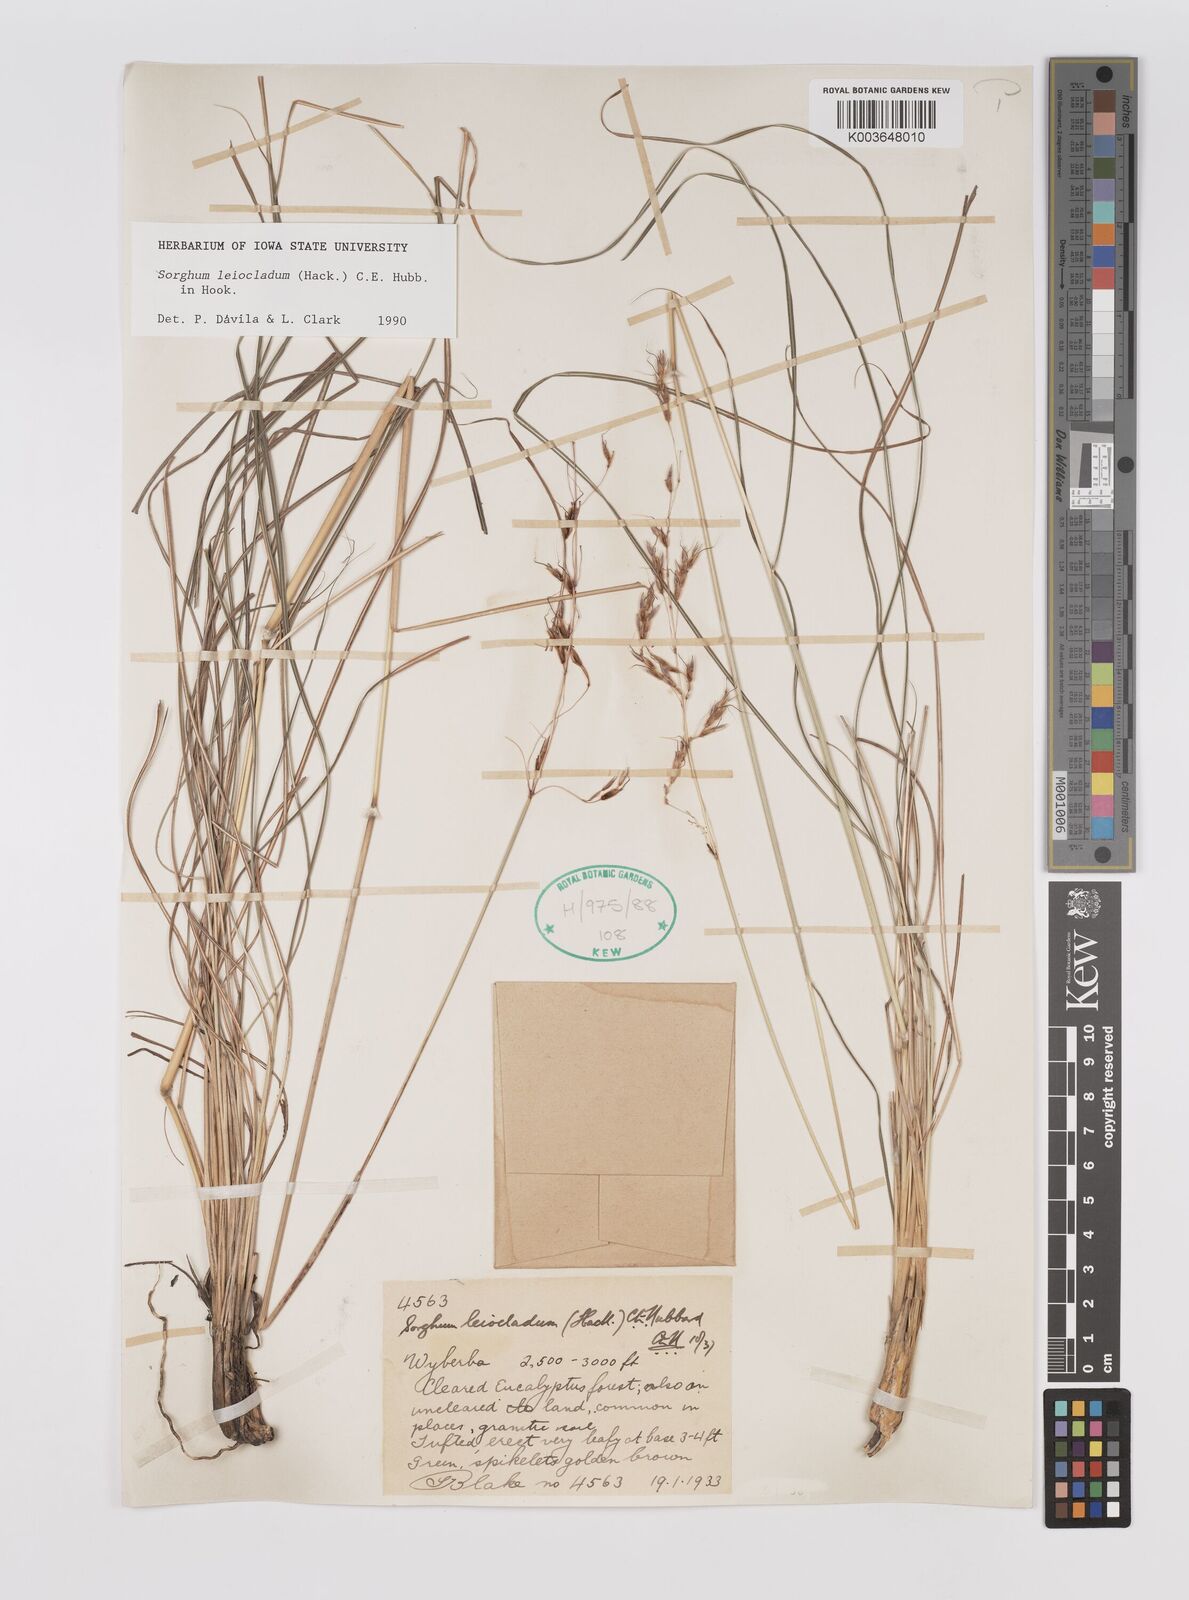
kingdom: Plantae
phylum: Tracheophyta
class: Liliopsida
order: Poales
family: Poaceae
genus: Sarga
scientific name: Sarga leioclada
